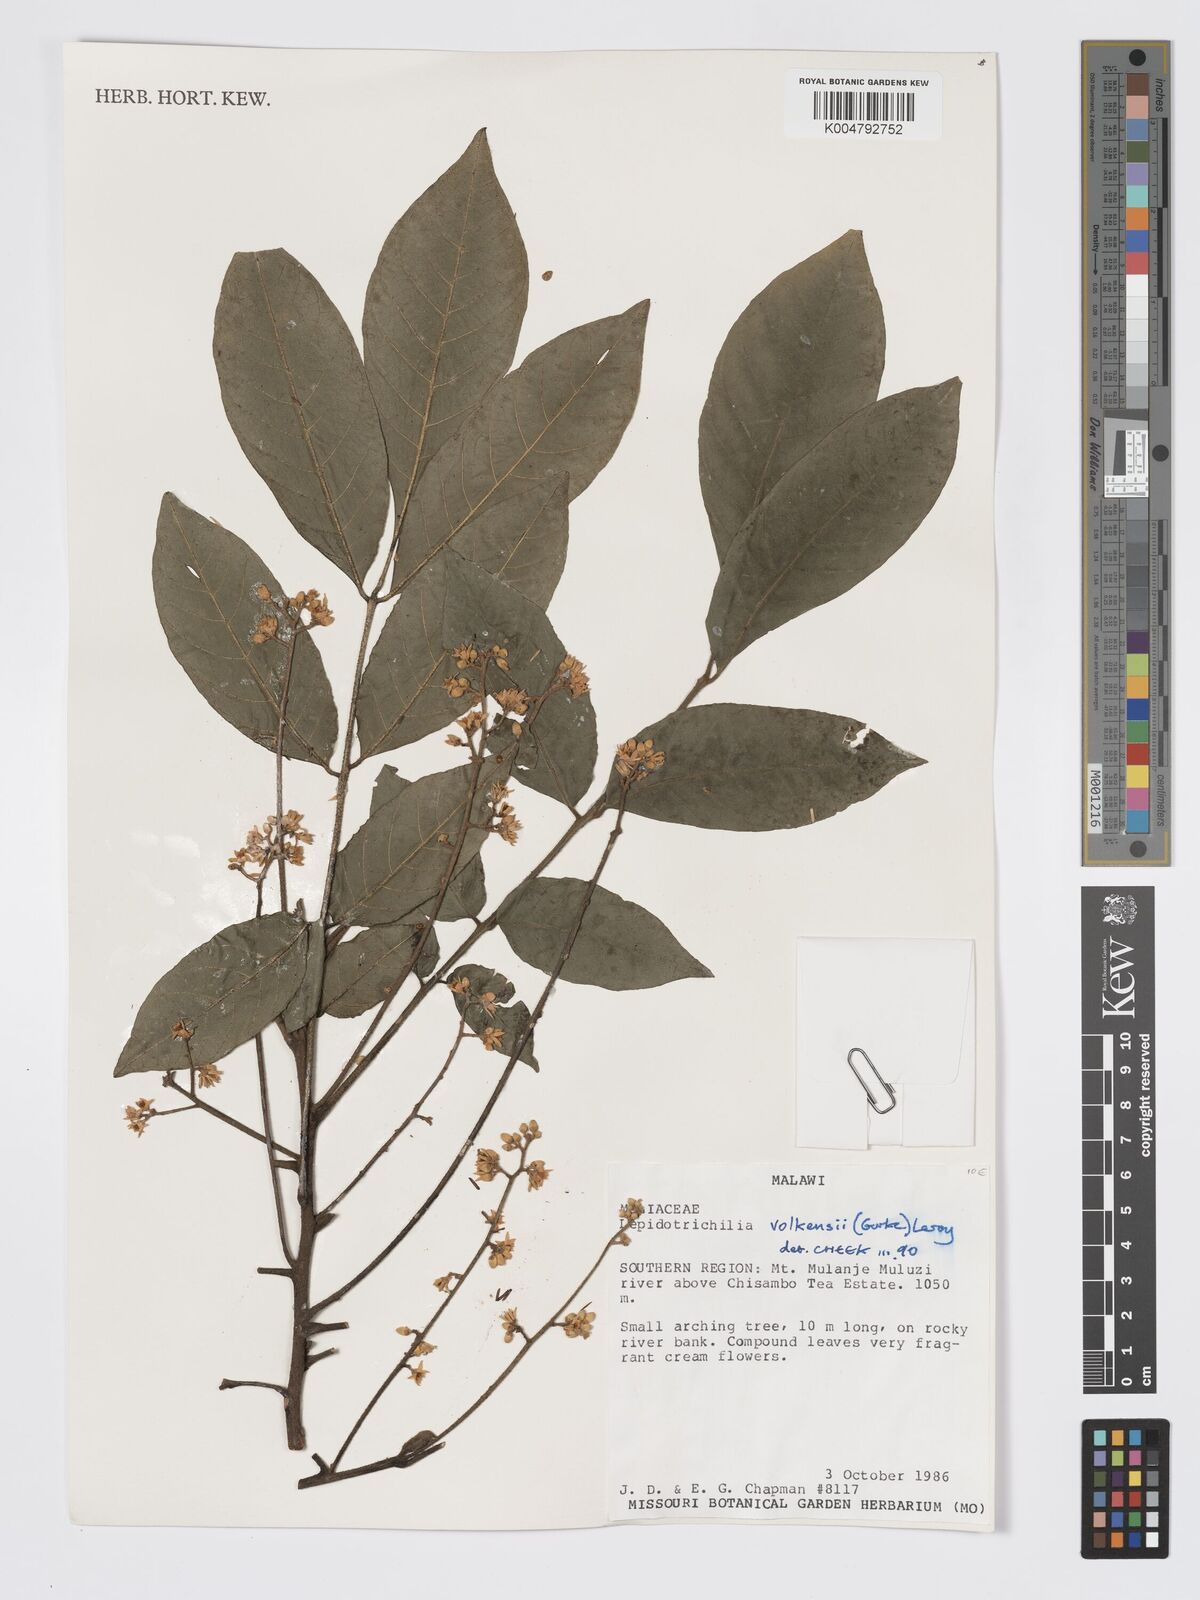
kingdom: Plantae
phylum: Tracheophyta
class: Magnoliopsida
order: Sapindales
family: Meliaceae
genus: Lepidotrichilia
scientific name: Lepidotrichilia volkensii
